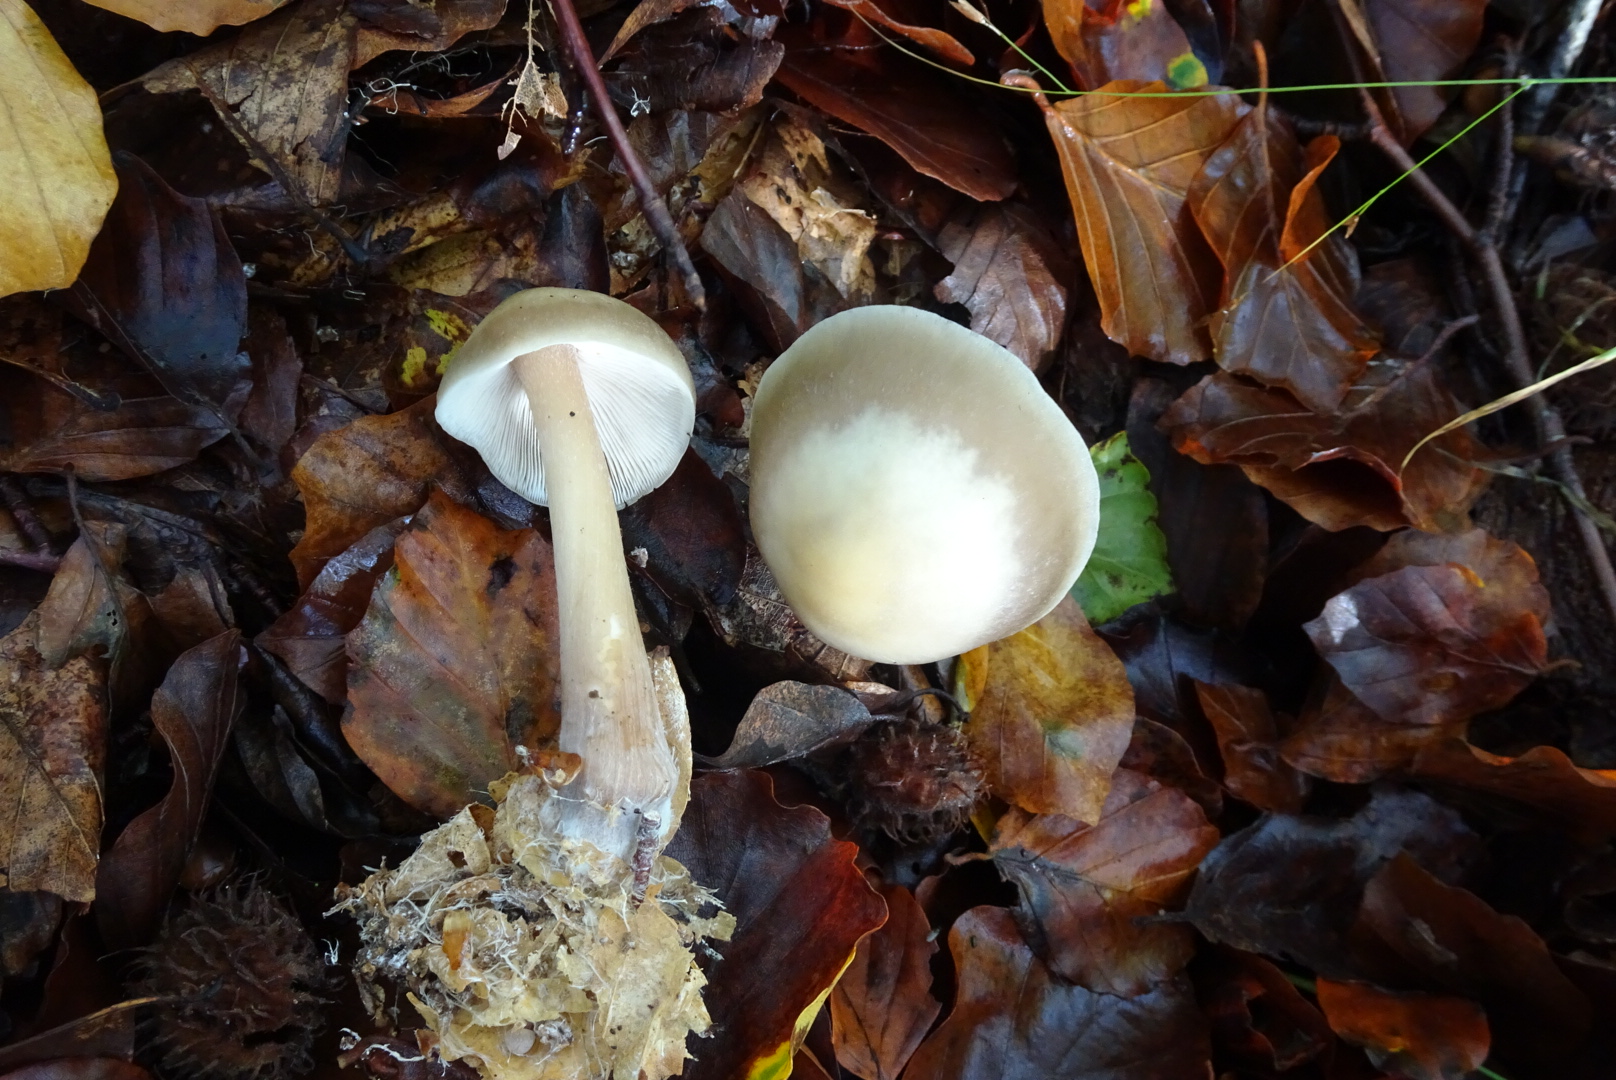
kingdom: Fungi
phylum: Basidiomycota
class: Agaricomycetes
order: Agaricales
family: Omphalotaceae
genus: Rhodocollybia
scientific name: Rhodocollybia asema
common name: horngrå fladhat
